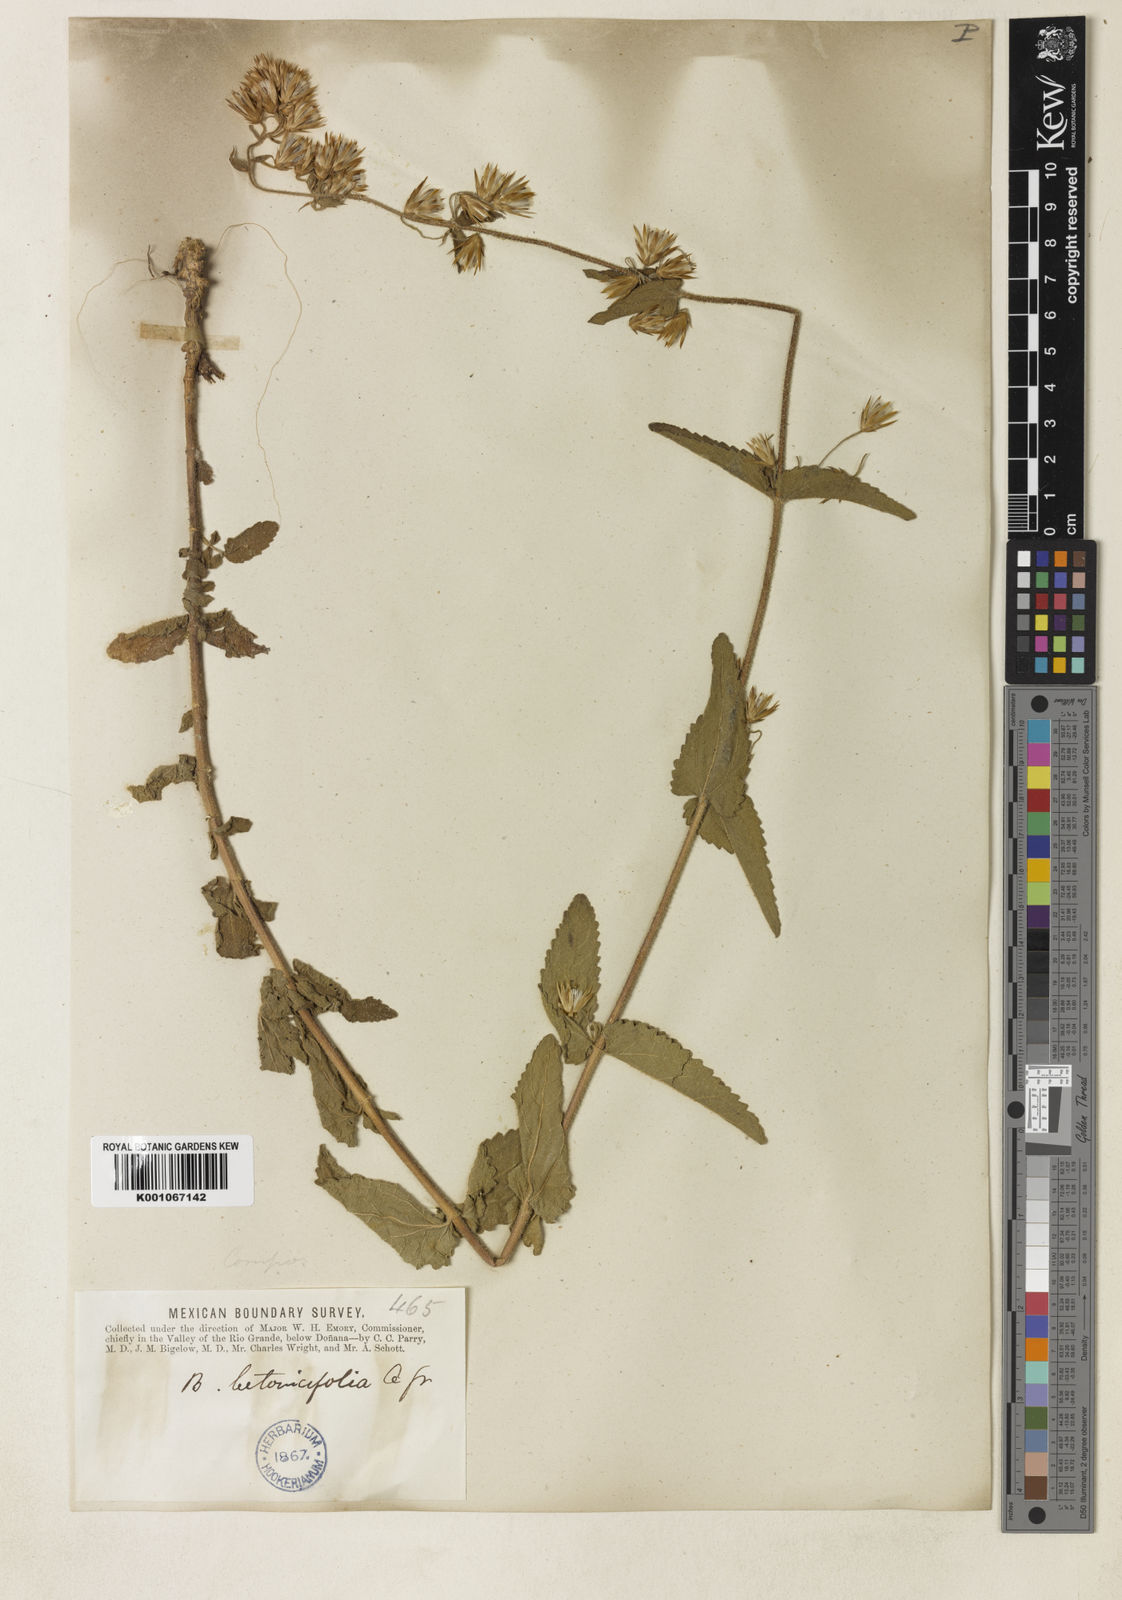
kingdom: Plantae
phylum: Tracheophyta
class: Magnoliopsida
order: Asterales
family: Asteraceae
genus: Brickellia
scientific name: Brickellia betonicifolia
